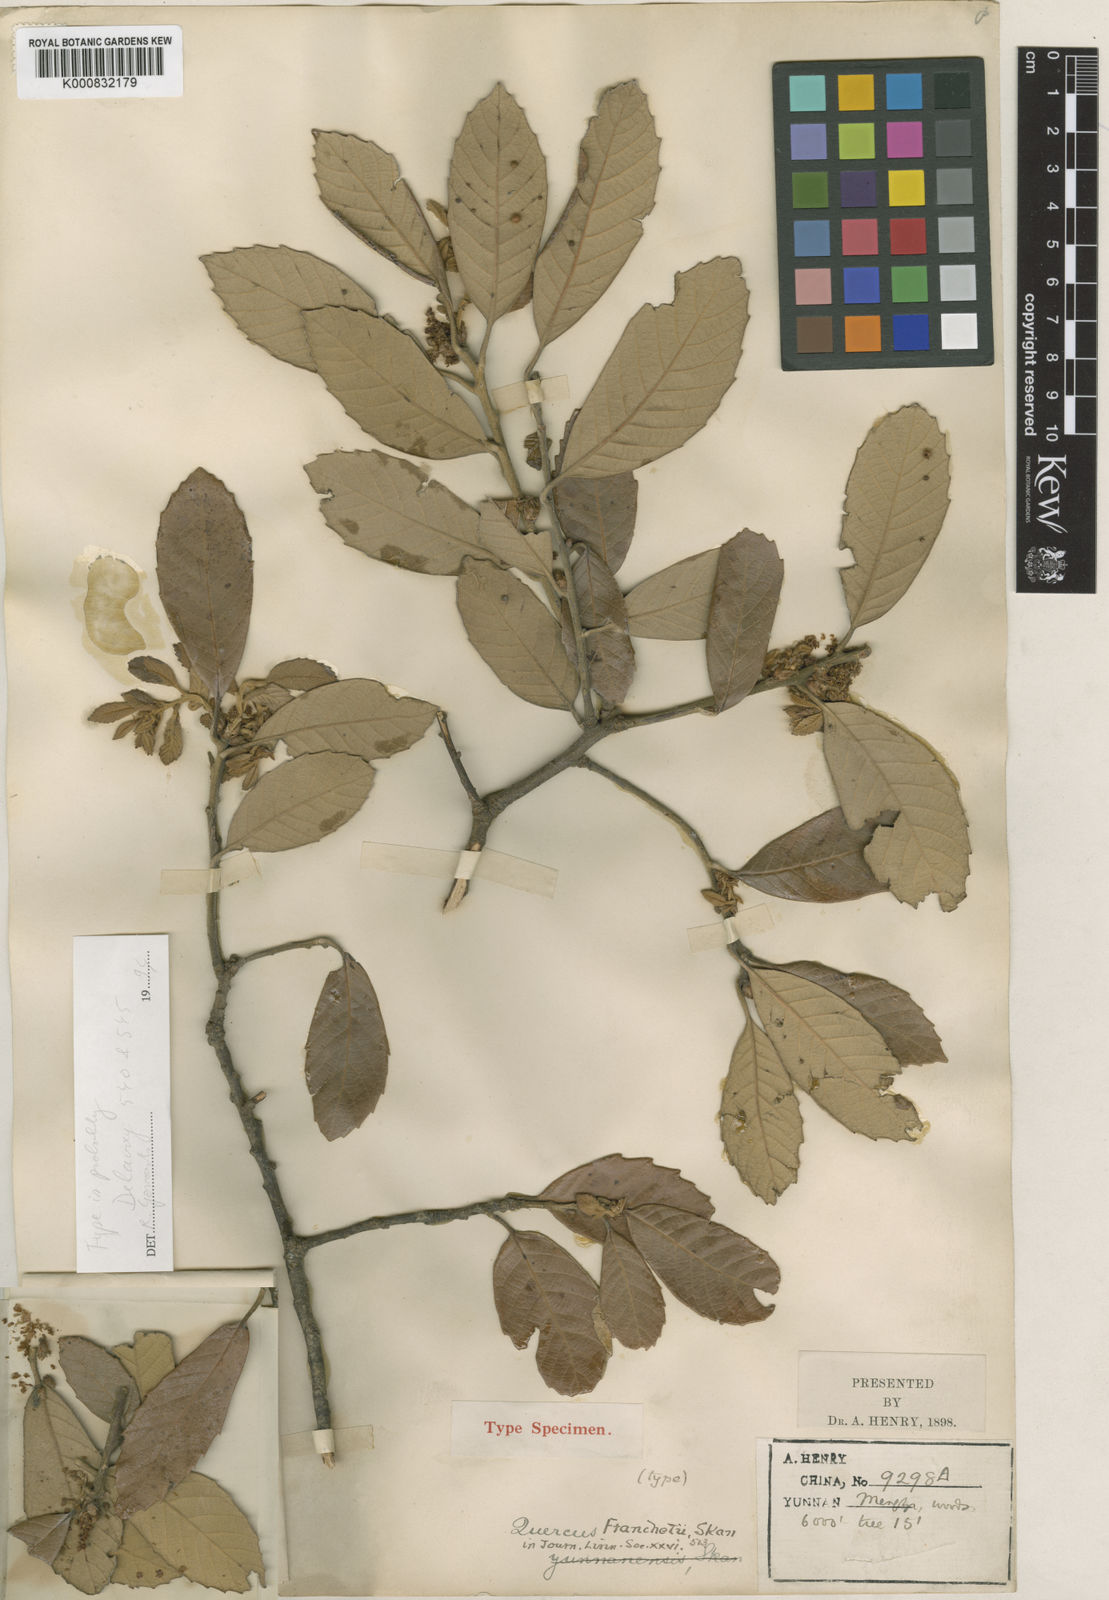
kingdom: Plantae
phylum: Tracheophyta
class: Magnoliopsida
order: Fagales
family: Fagaceae
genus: Quercus
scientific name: Quercus franchetii
